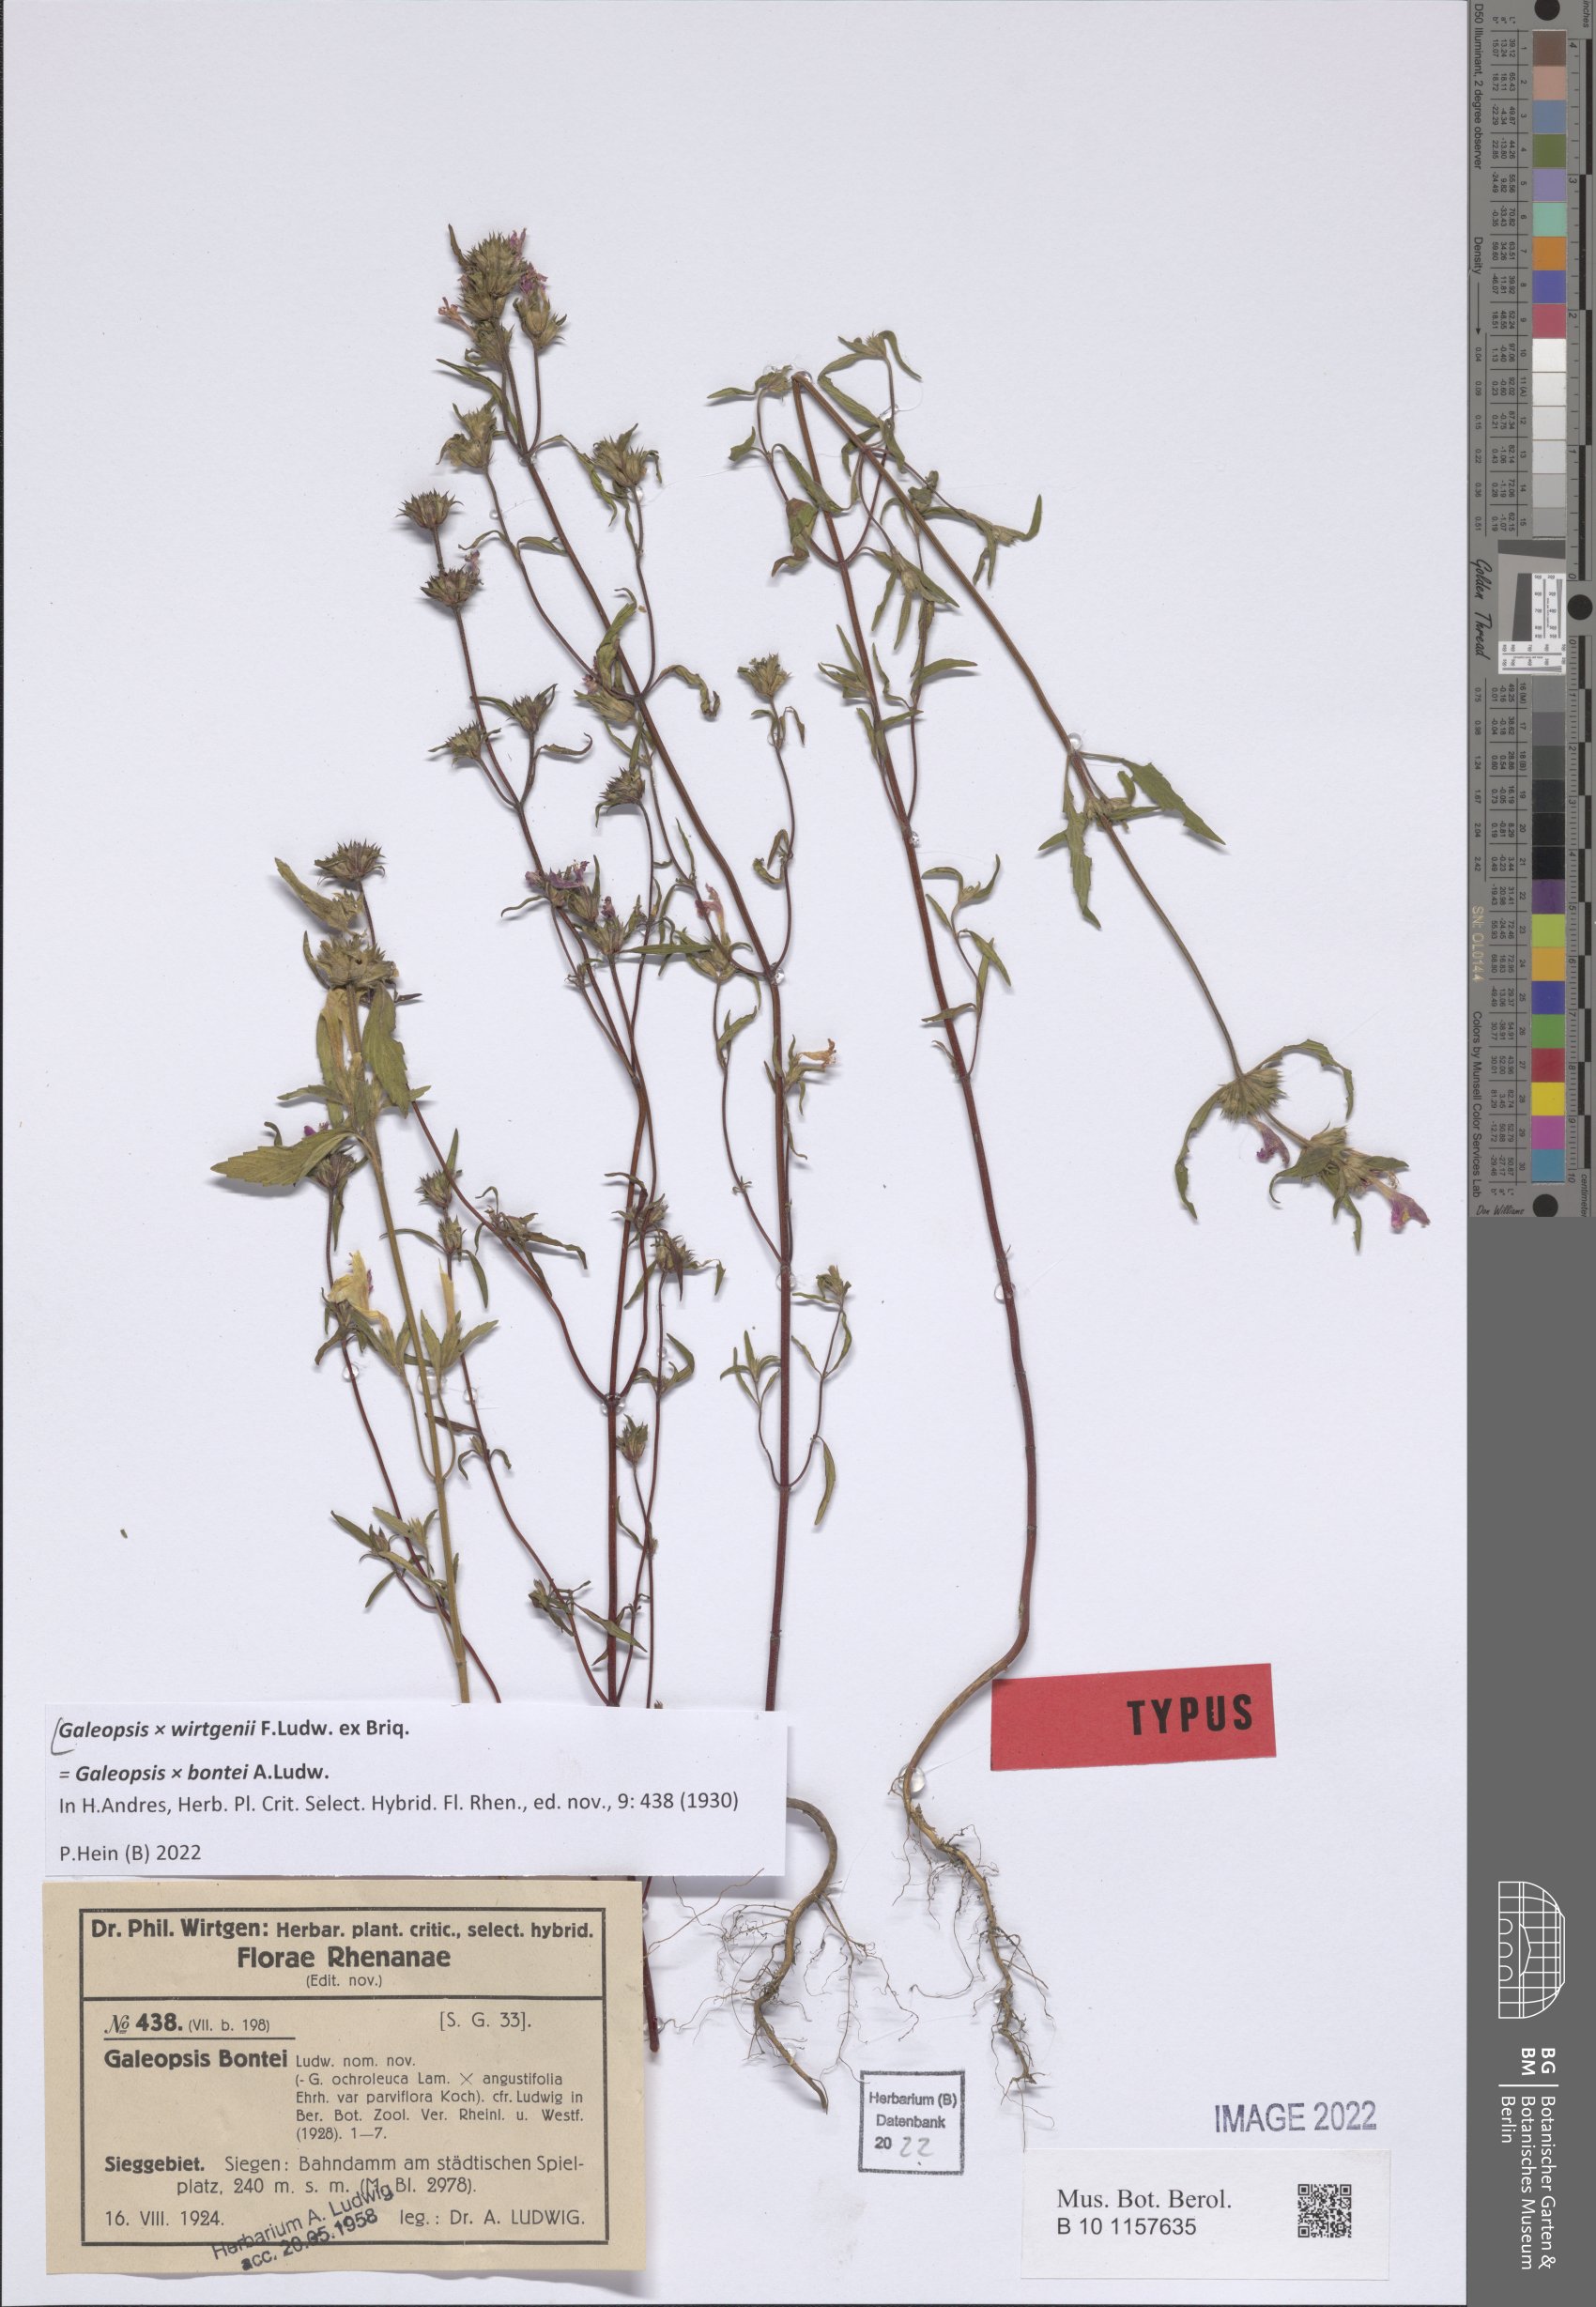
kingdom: Plantae
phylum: Tracheophyta
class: Magnoliopsida
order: Lamiales
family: Lamiaceae
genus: Galeopsis
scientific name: Galeopsis wirtgenii
